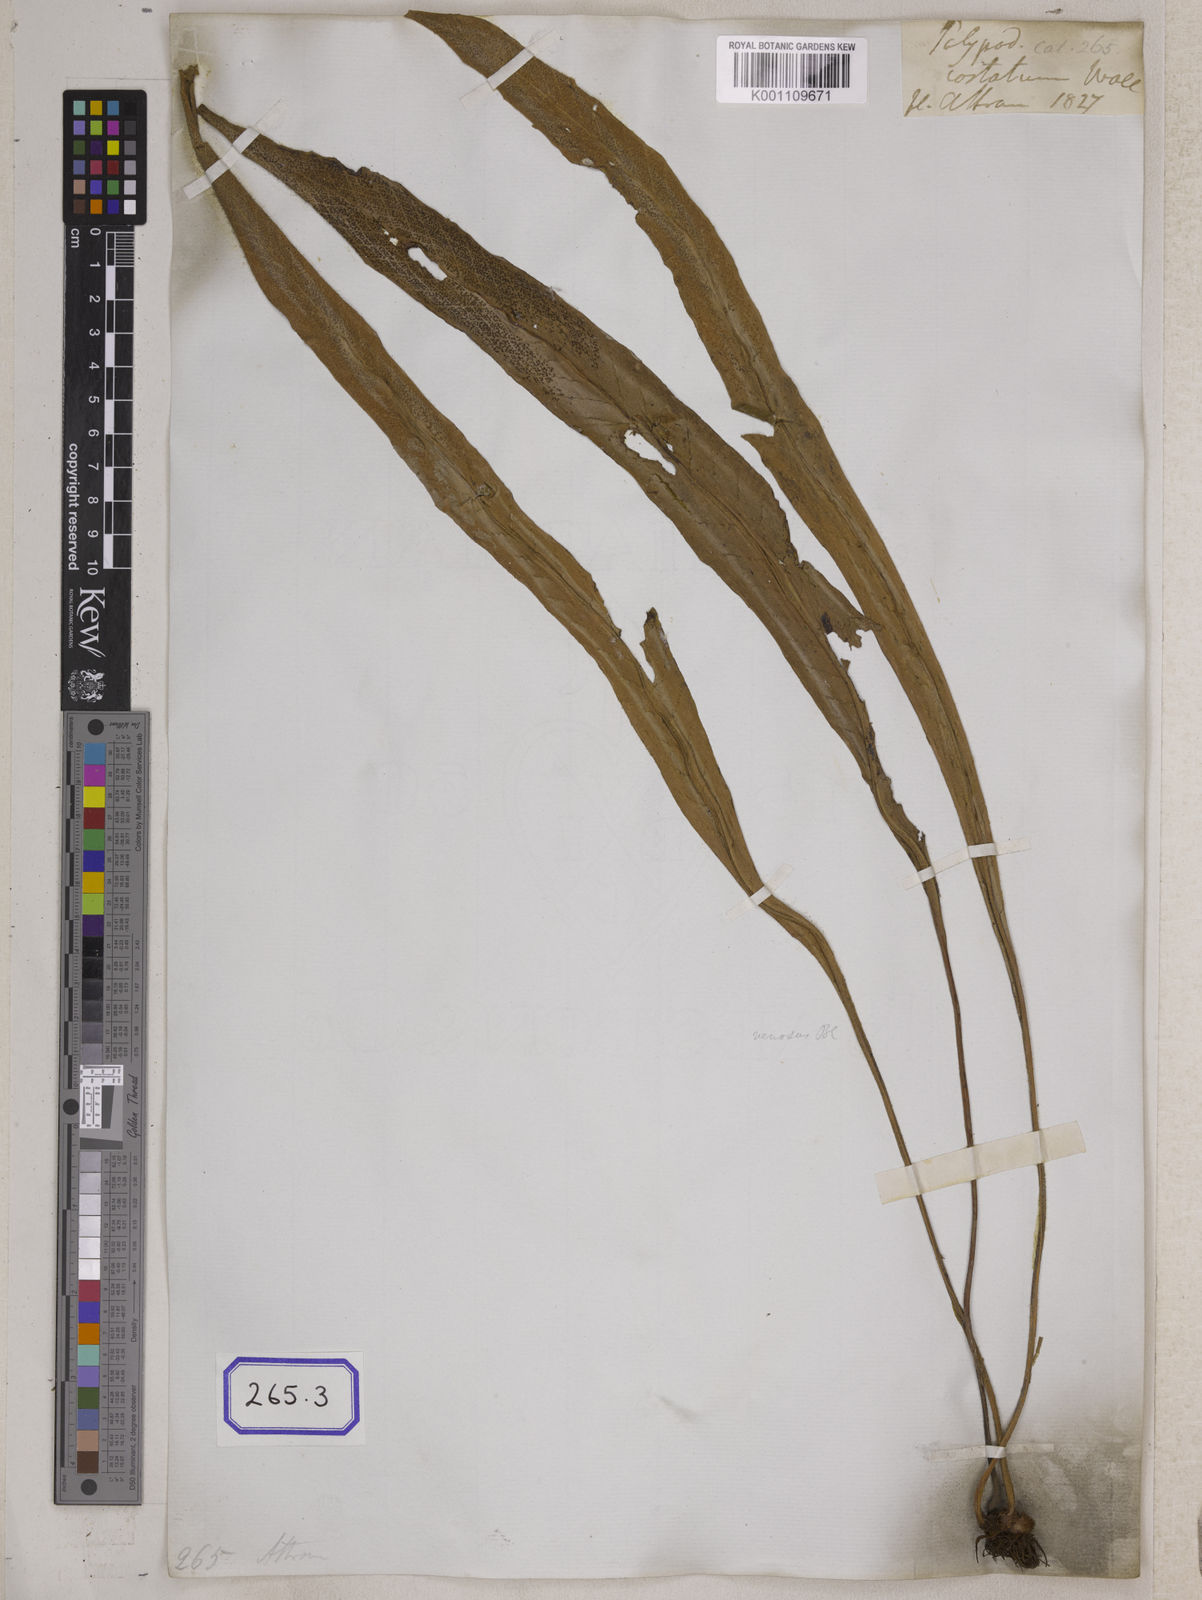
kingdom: Plantae
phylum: Tracheophyta
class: Polypodiopsida
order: Polypodiales
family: Thelypteridaceae
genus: Menisciopsis
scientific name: Menisciopsis penangiana
